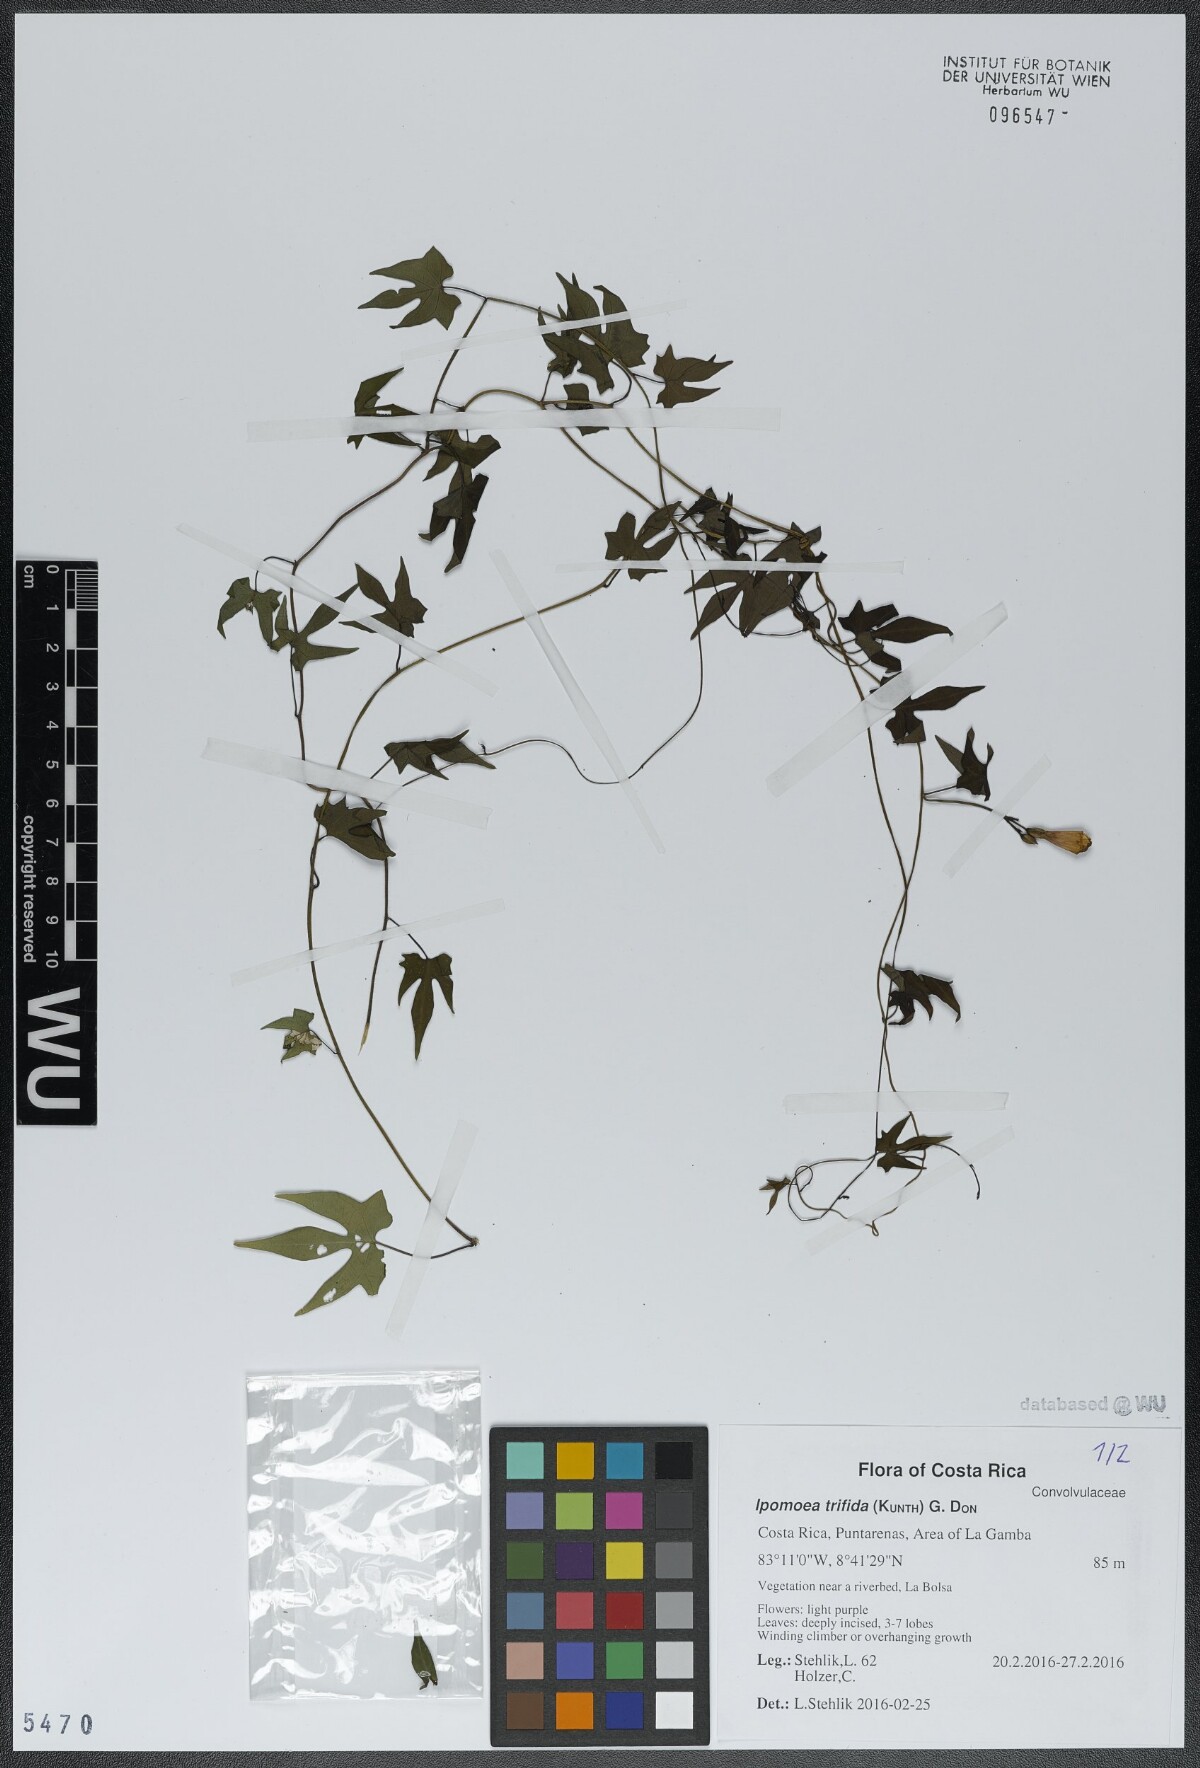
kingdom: Plantae
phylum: Tracheophyta
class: Magnoliopsida
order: Solanales
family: Convolvulaceae
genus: Ipomoea
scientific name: Ipomoea trifida
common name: Cotton morningglory
